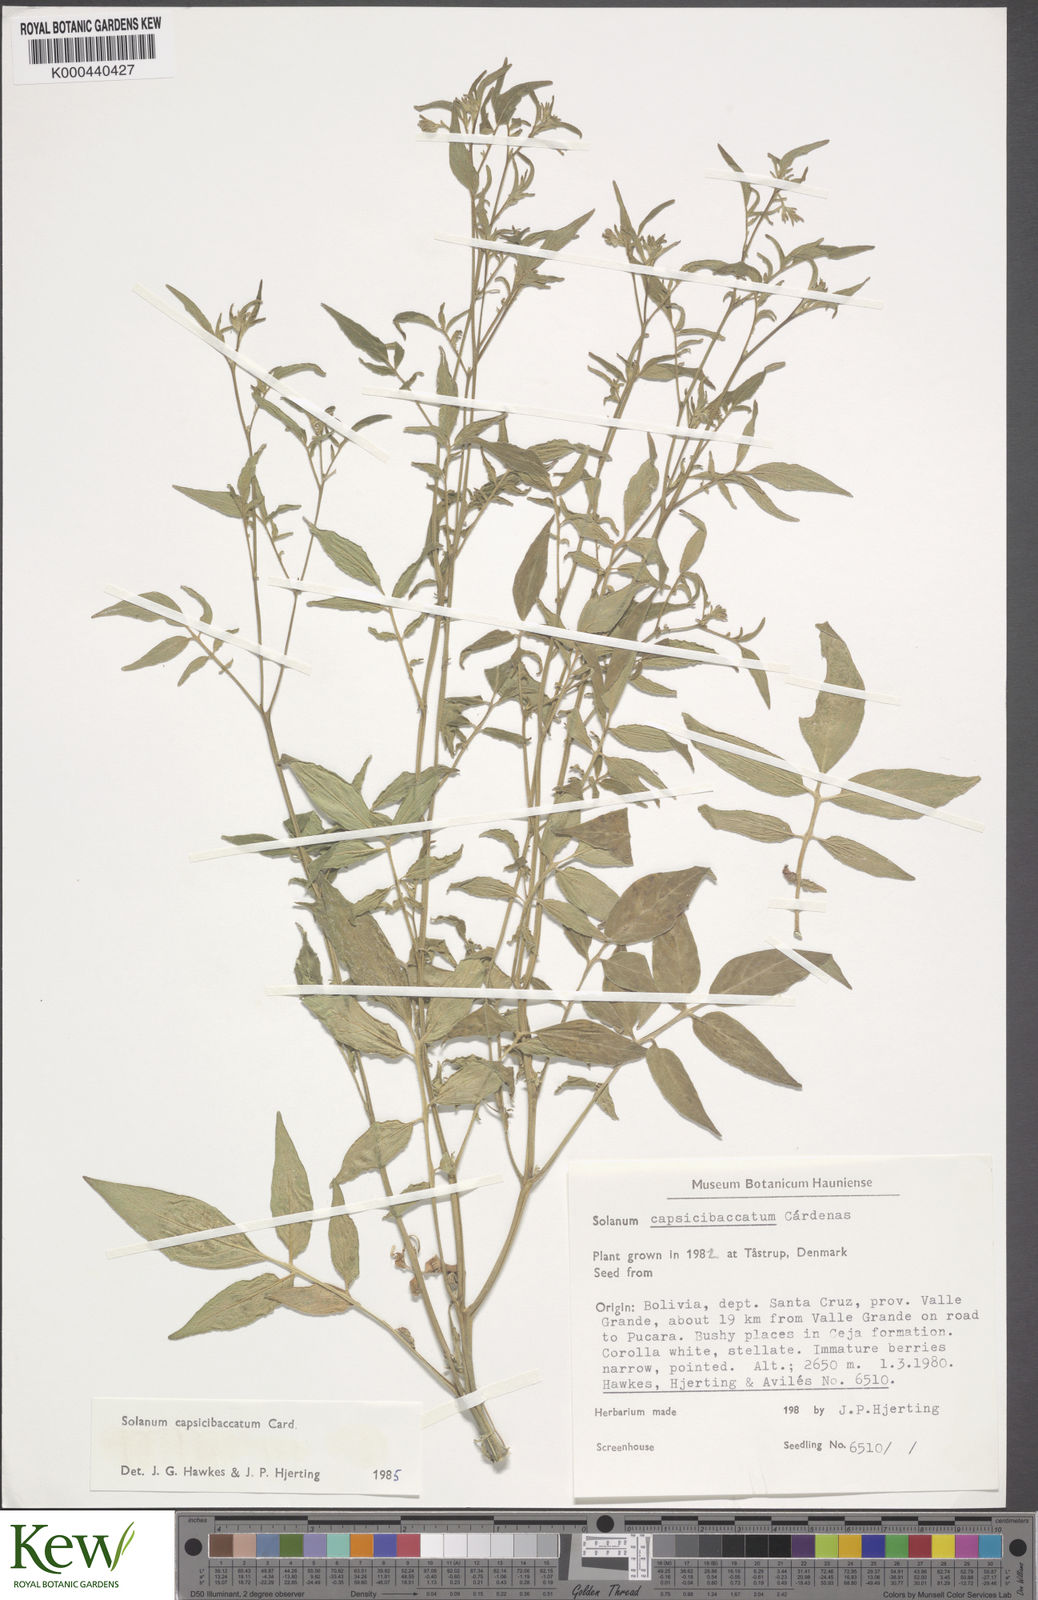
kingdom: Plantae
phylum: Tracheophyta
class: Magnoliopsida
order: Solanales
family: Solanaceae
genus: Solanum
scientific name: Solanum stipuloideum
